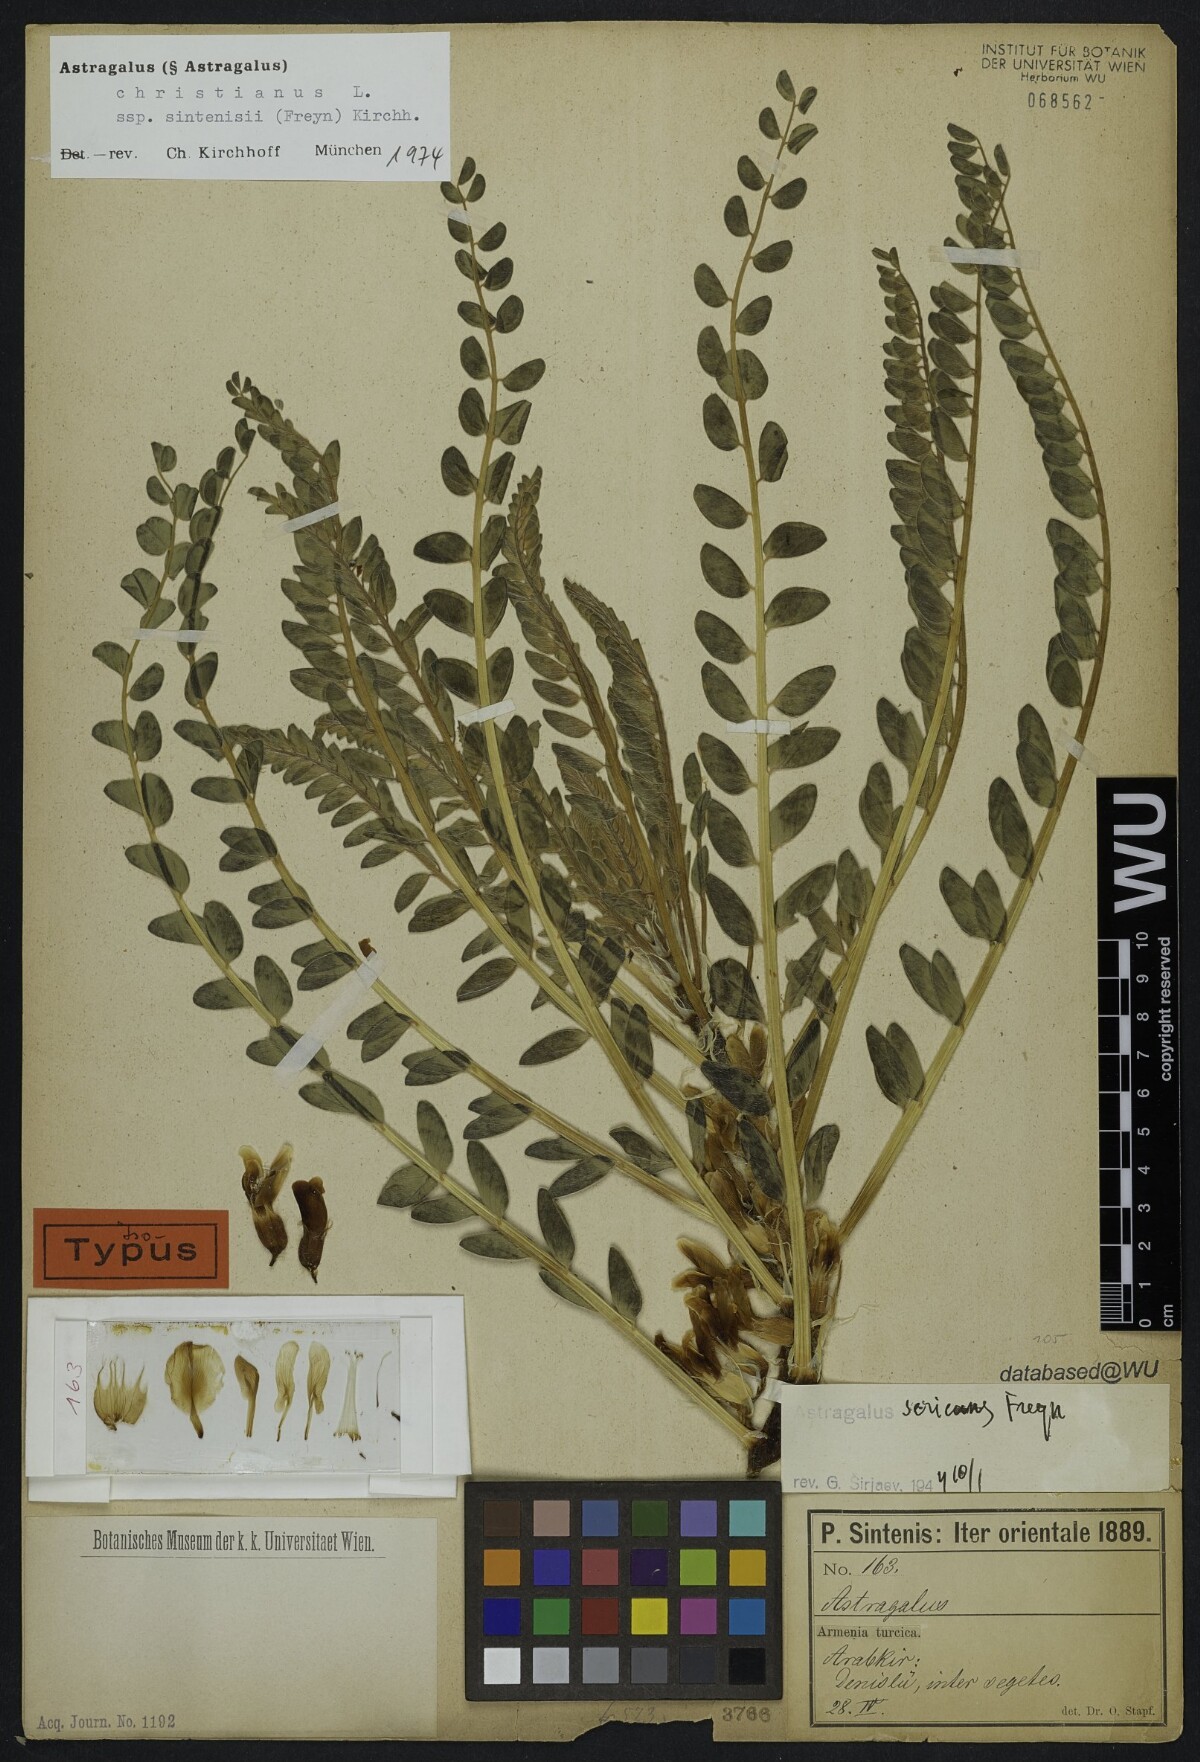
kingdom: Plantae
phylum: Tracheophyta
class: Magnoliopsida
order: Fabales
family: Fabaceae
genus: Astragalus
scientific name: Astragalus christianus
